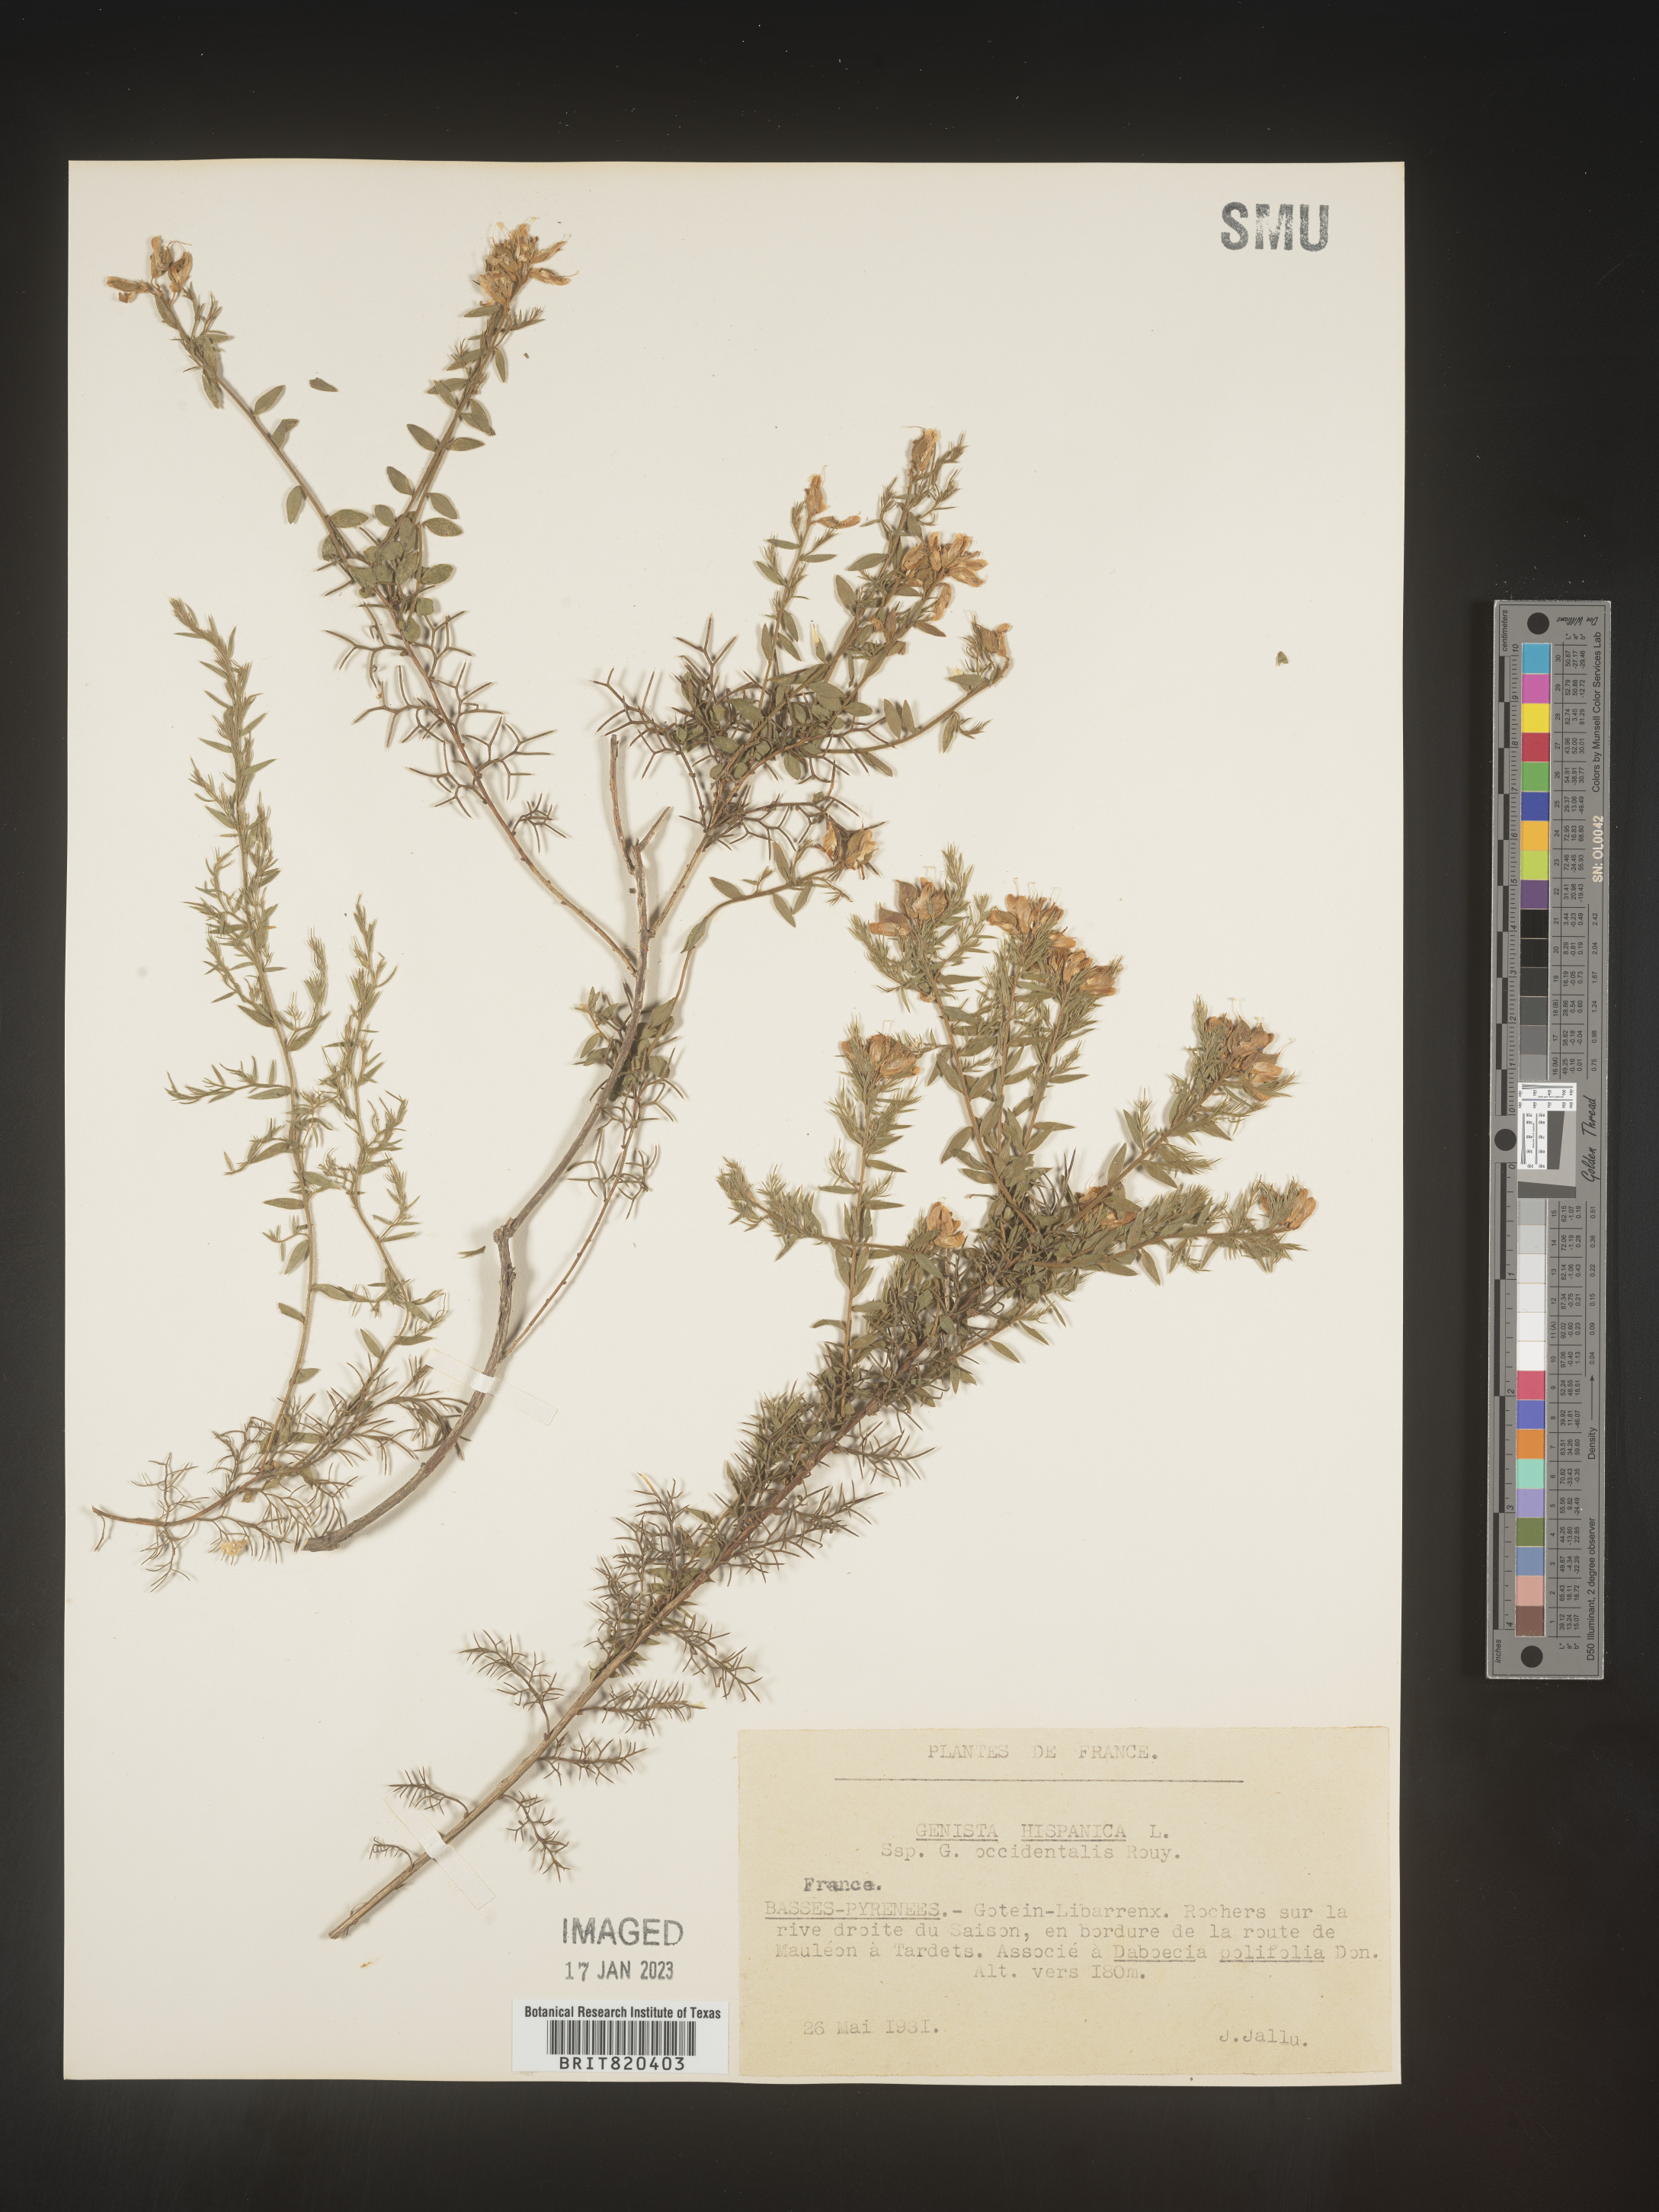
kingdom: Plantae
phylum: Tracheophyta
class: Magnoliopsida
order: Fabales
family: Fabaceae
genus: Genista
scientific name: Genista
